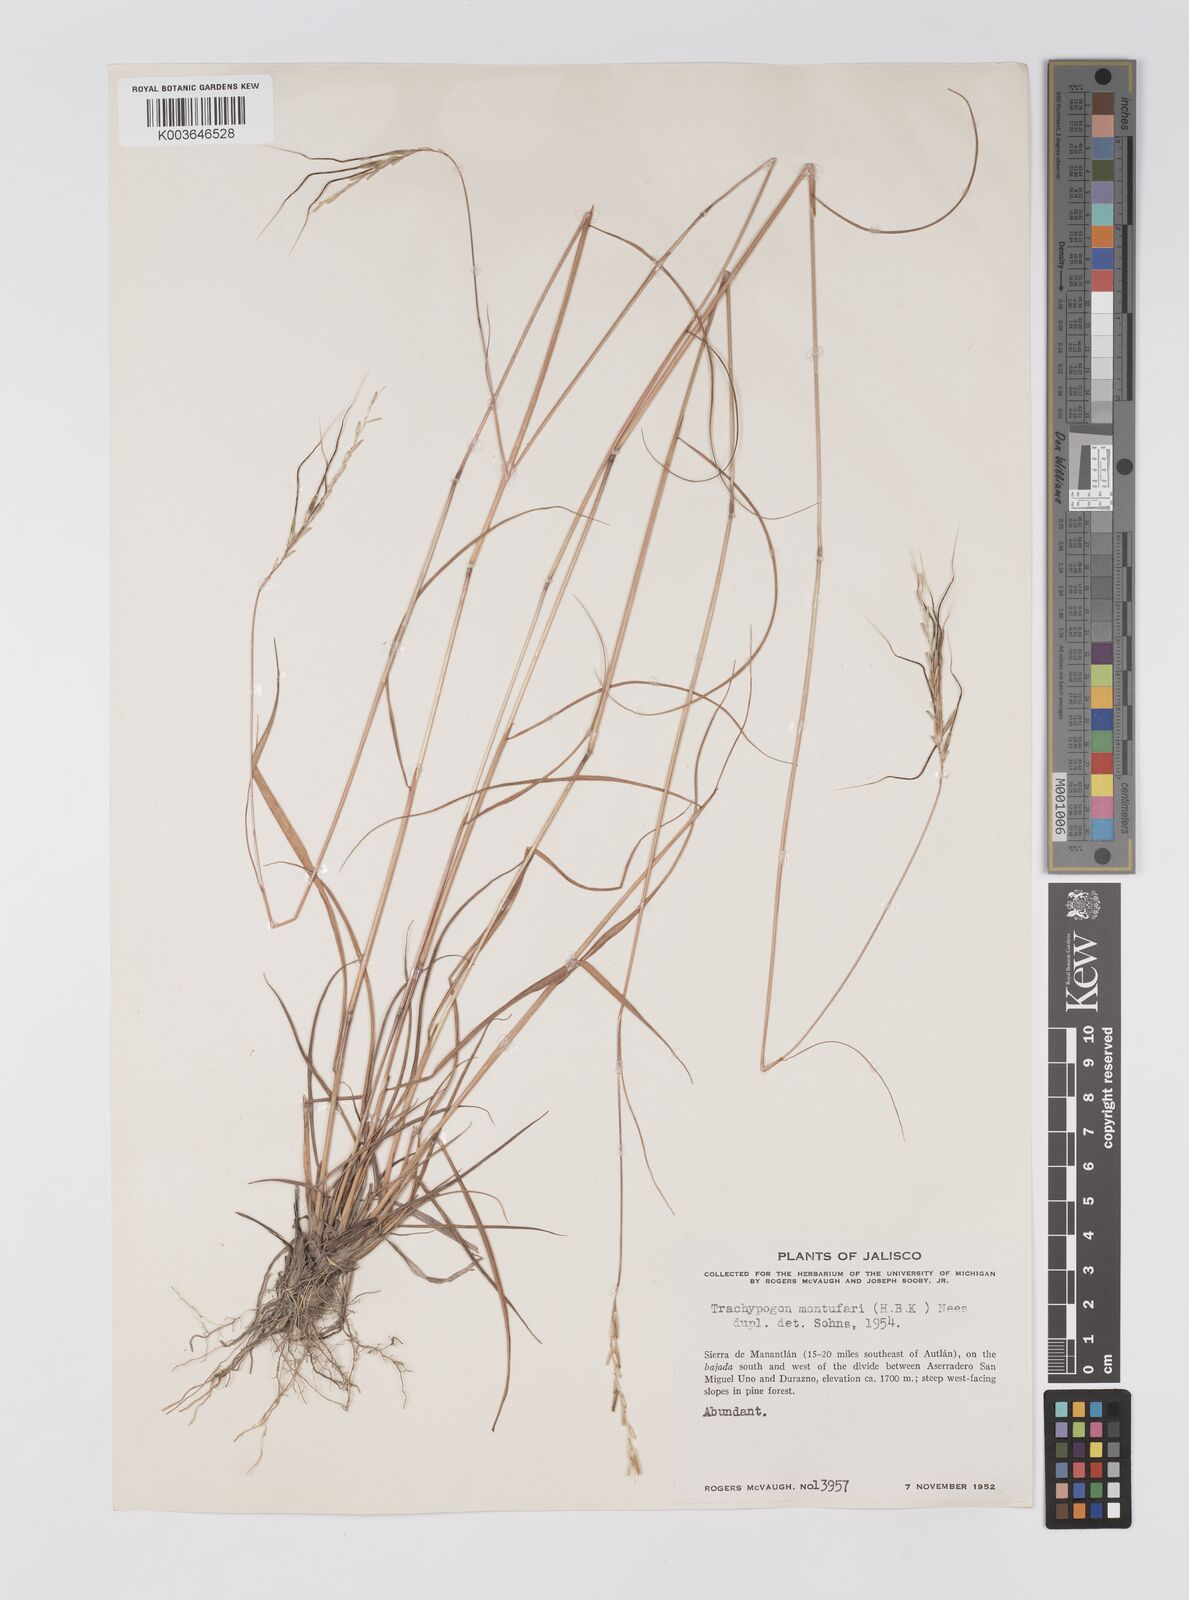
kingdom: Plantae
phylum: Tracheophyta
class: Liliopsida
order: Poales
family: Poaceae
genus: Trachypogon
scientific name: Trachypogon spicatus
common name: Crinkle-awn
